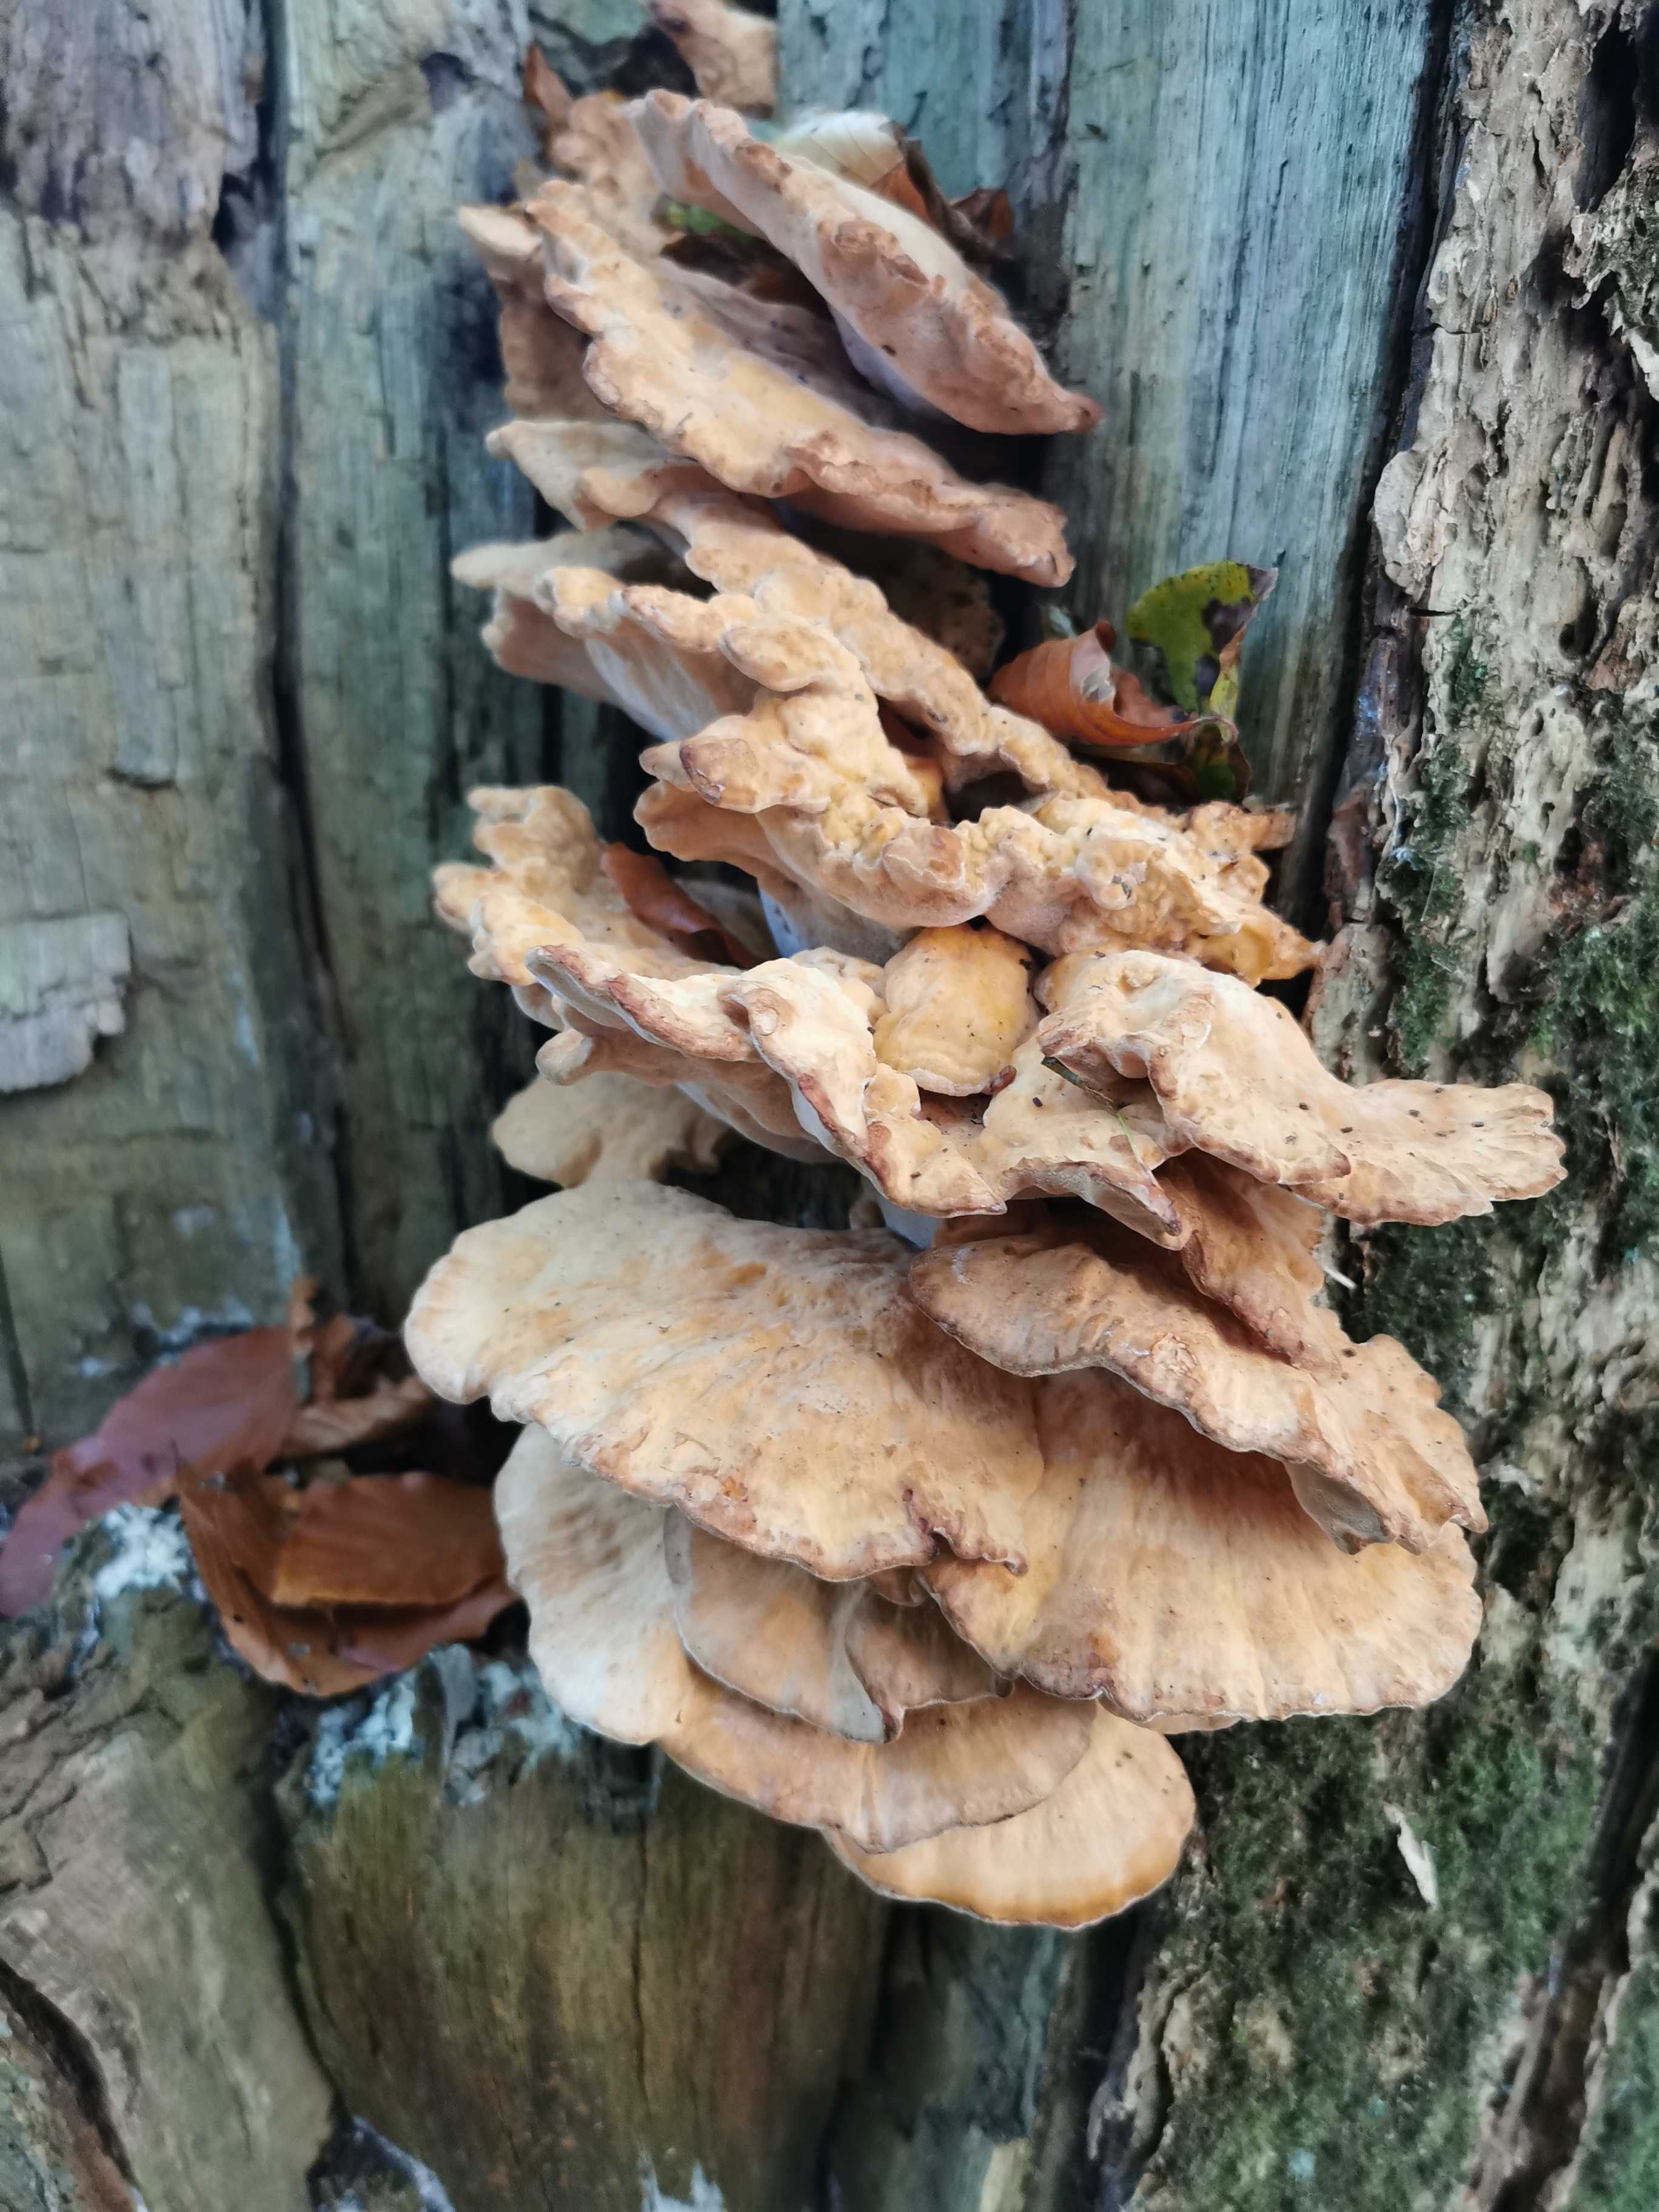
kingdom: Fungi
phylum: Basidiomycota
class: Agaricomycetes
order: Polyporales
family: Laetiporaceae
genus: Laetiporus
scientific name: Laetiporus sulphureus
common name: svovlporesvamp
